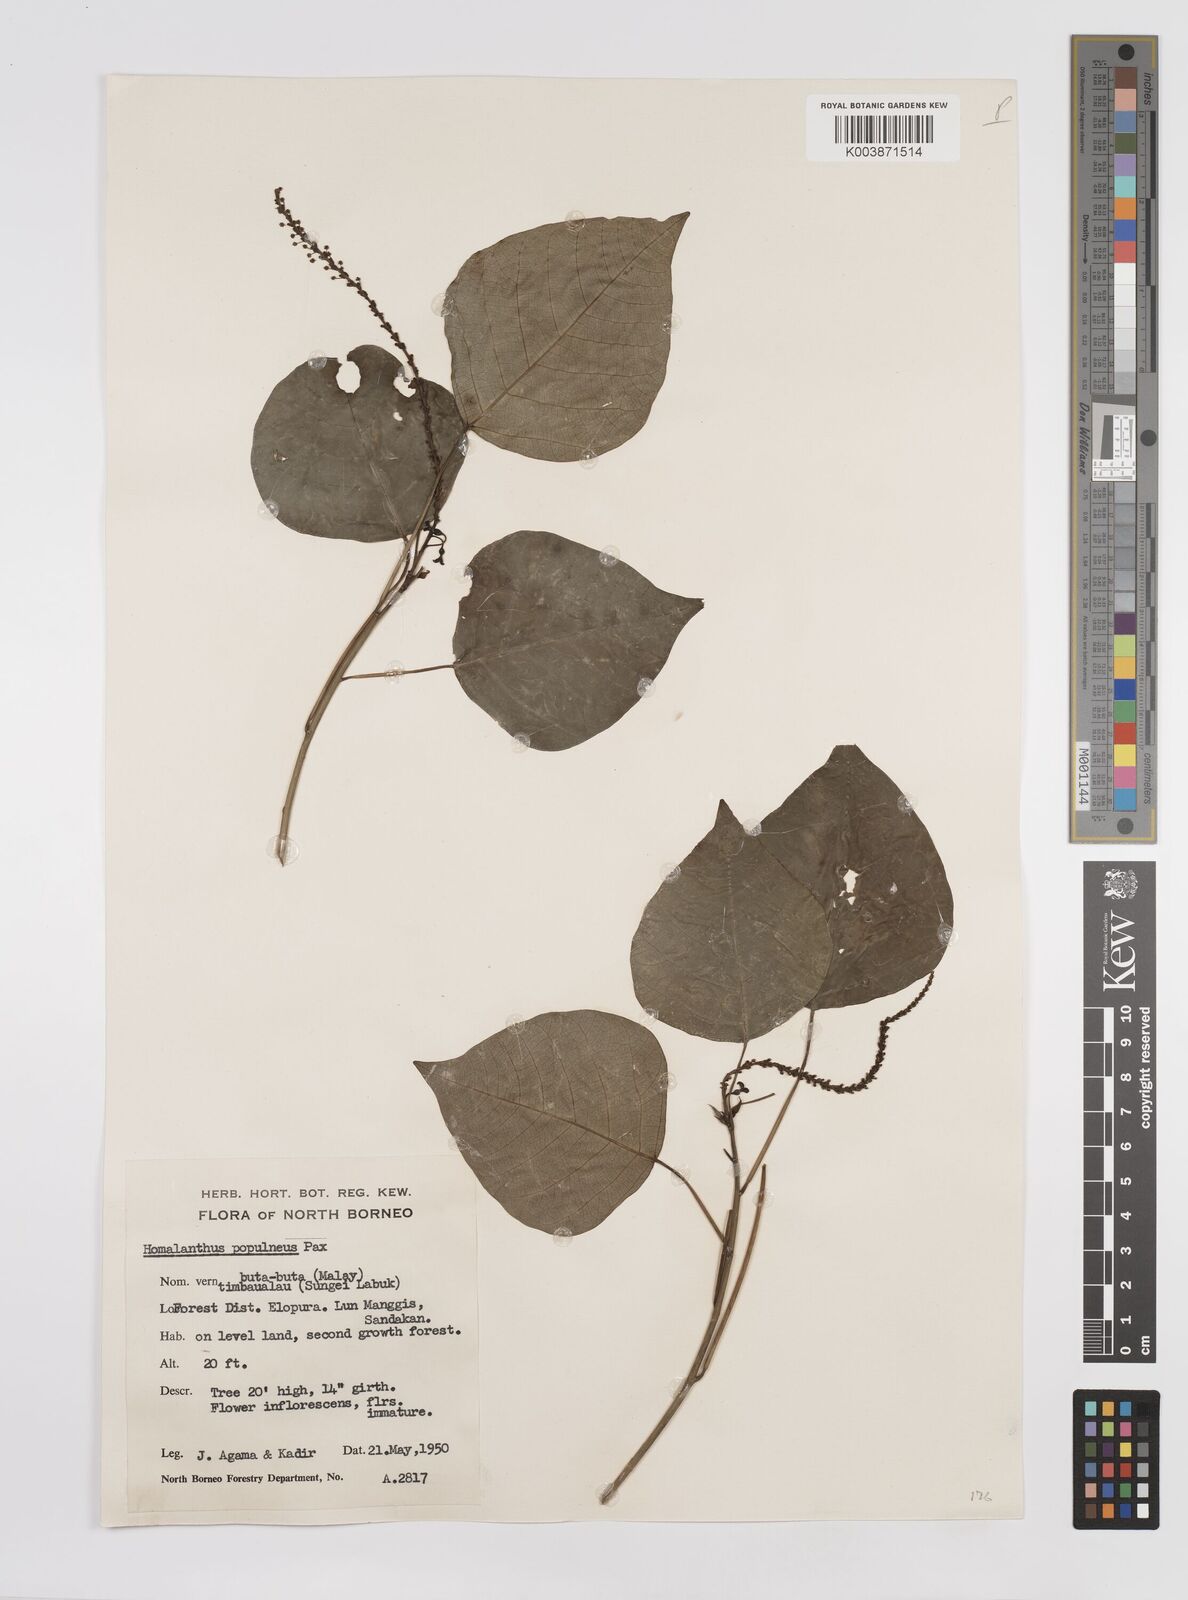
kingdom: Plantae
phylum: Tracheophyta
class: Magnoliopsida
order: Malpighiales
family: Euphorbiaceae
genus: Homalanthus
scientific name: Homalanthus populneus
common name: Spurge
